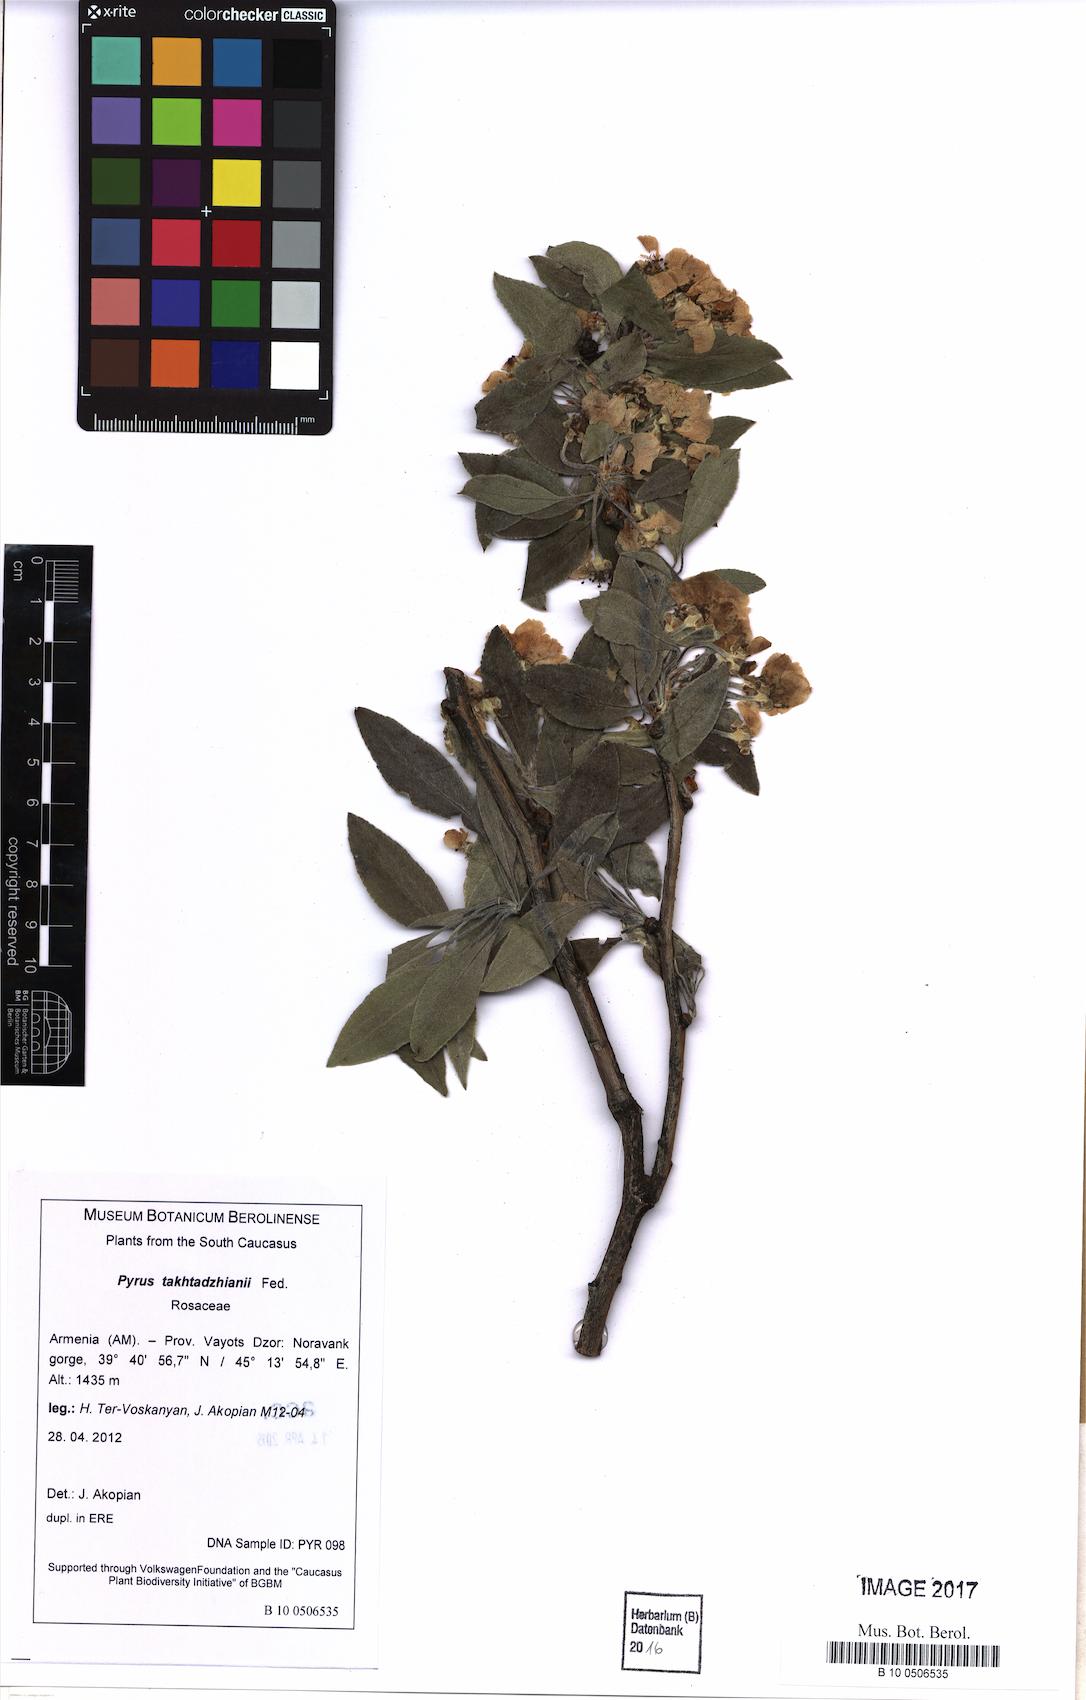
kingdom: Plantae
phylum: Tracheophyta
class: Magnoliopsida
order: Rosales
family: Rosaceae
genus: Pyrus
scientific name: Pyrus takhtadzhianii
